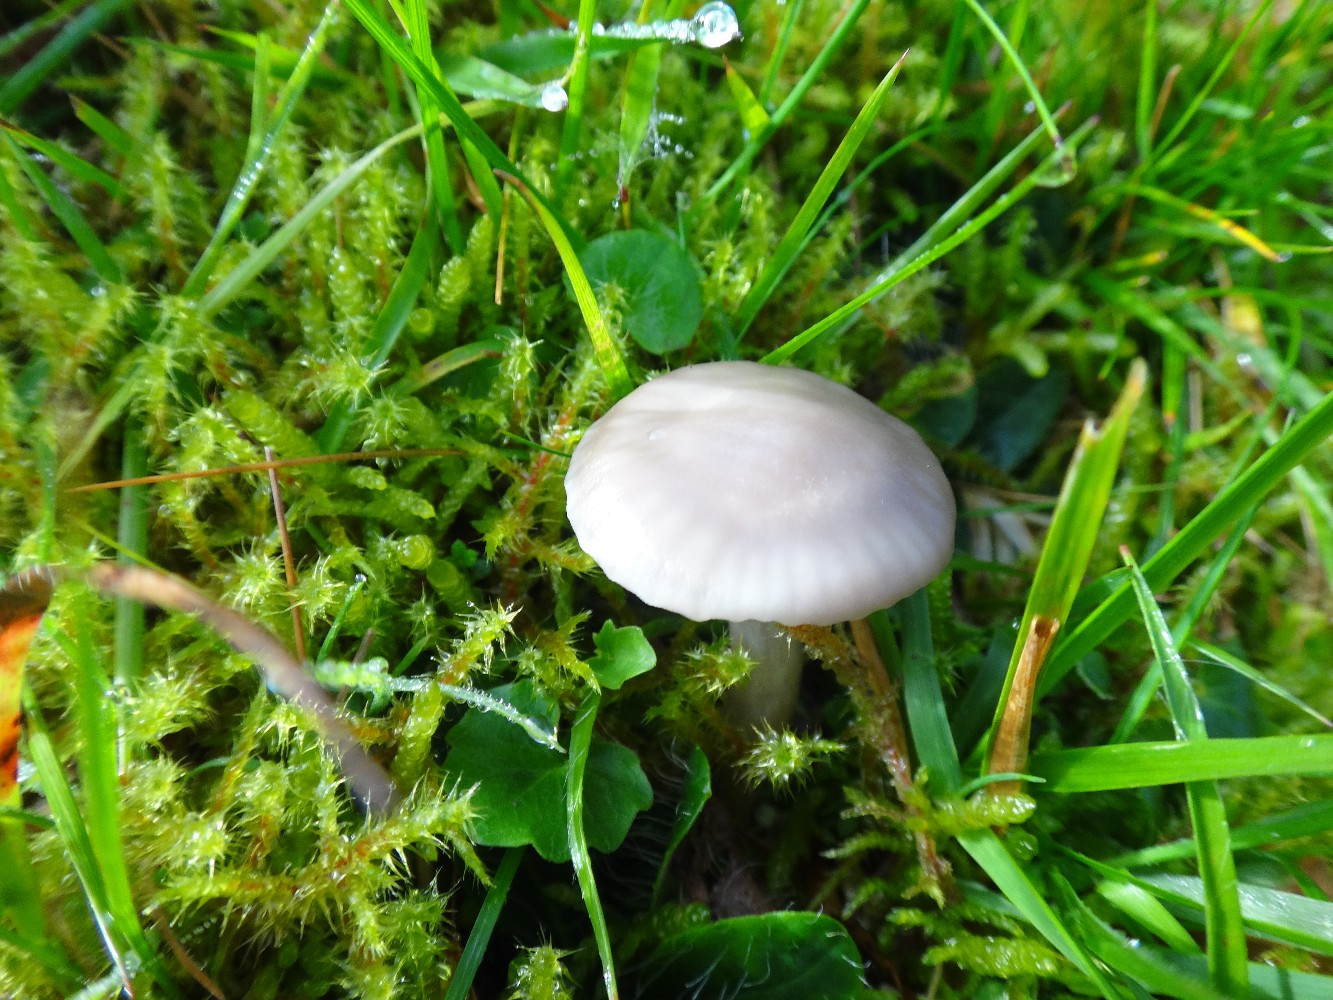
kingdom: Fungi
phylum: Basidiomycota
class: Agaricomycetes
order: Agaricales
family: Hygrophoraceae
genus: Cuphophyllus
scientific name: Cuphophyllus flavipes
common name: gulfodet vokshat
